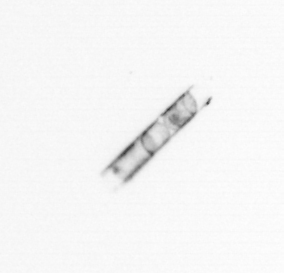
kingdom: Chromista
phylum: Ochrophyta
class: Bacillariophyceae
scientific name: Bacillariophyceae
